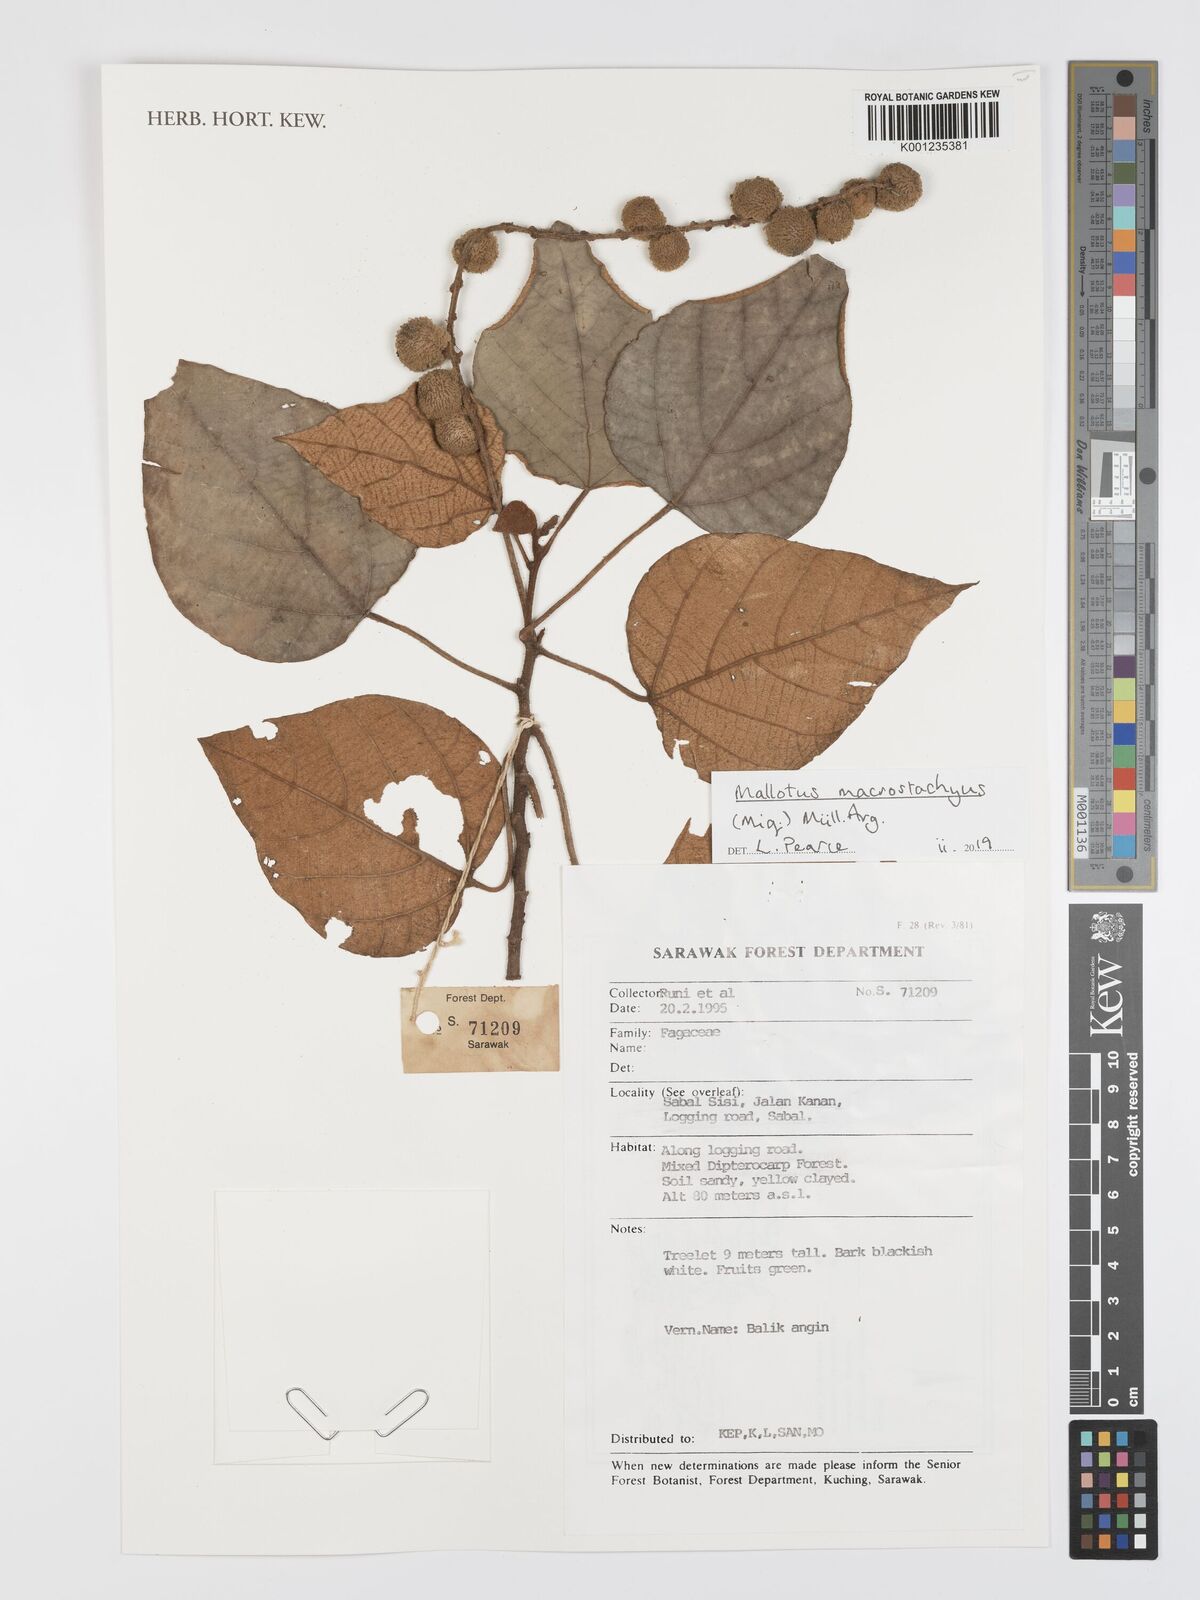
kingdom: Plantae
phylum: Tracheophyta
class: Magnoliopsida
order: Malpighiales
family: Euphorbiaceae
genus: Mallotus
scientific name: Mallotus macrostachyus
